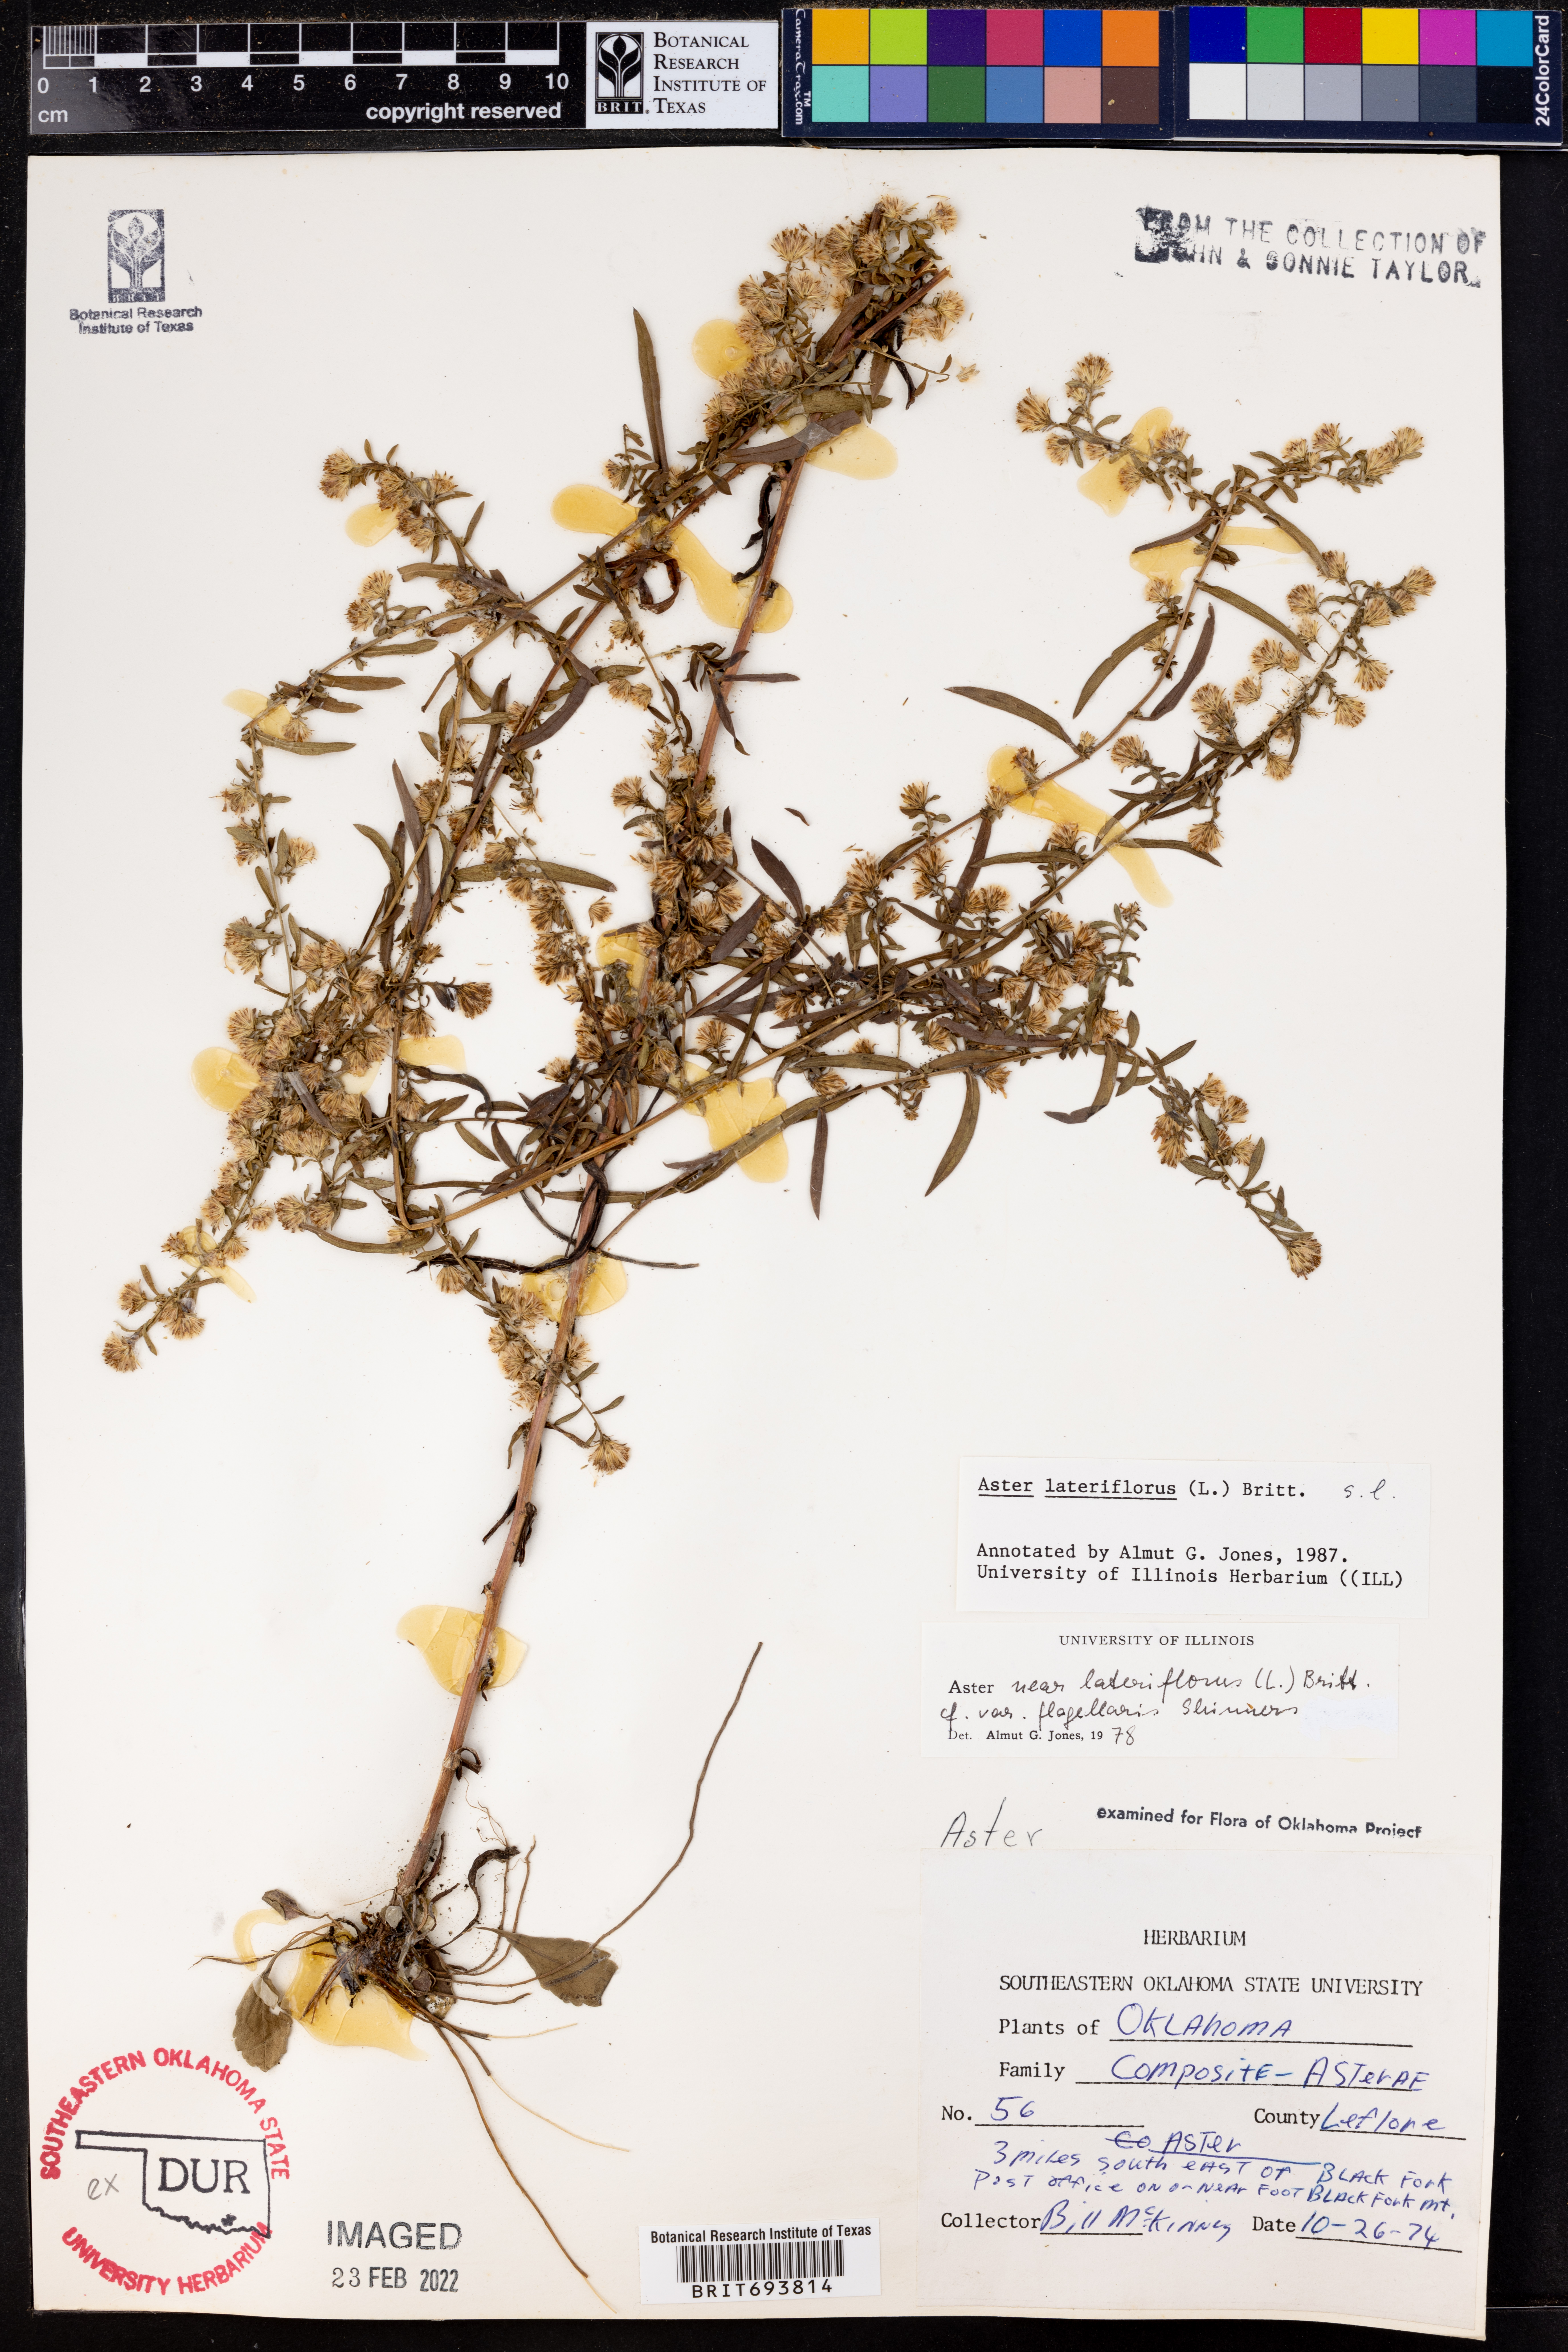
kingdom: Plantae
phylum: Tracheophyta
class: Magnoliopsida
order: Asterales
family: Asteraceae
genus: Symphyotrichum
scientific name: Symphyotrichum lateriflorum
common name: Calico aster
